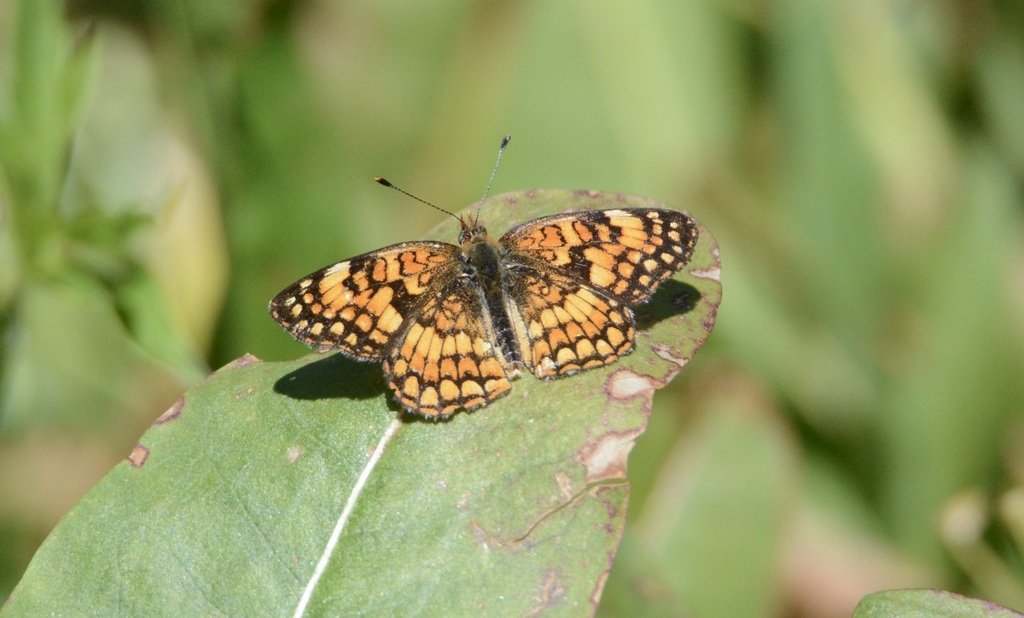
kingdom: Animalia
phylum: Arthropoda
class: Insecta
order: Lepidoptera
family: Nymphalidae
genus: Eresia
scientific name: Eresia aveyrona
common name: Mylitta Crescent
